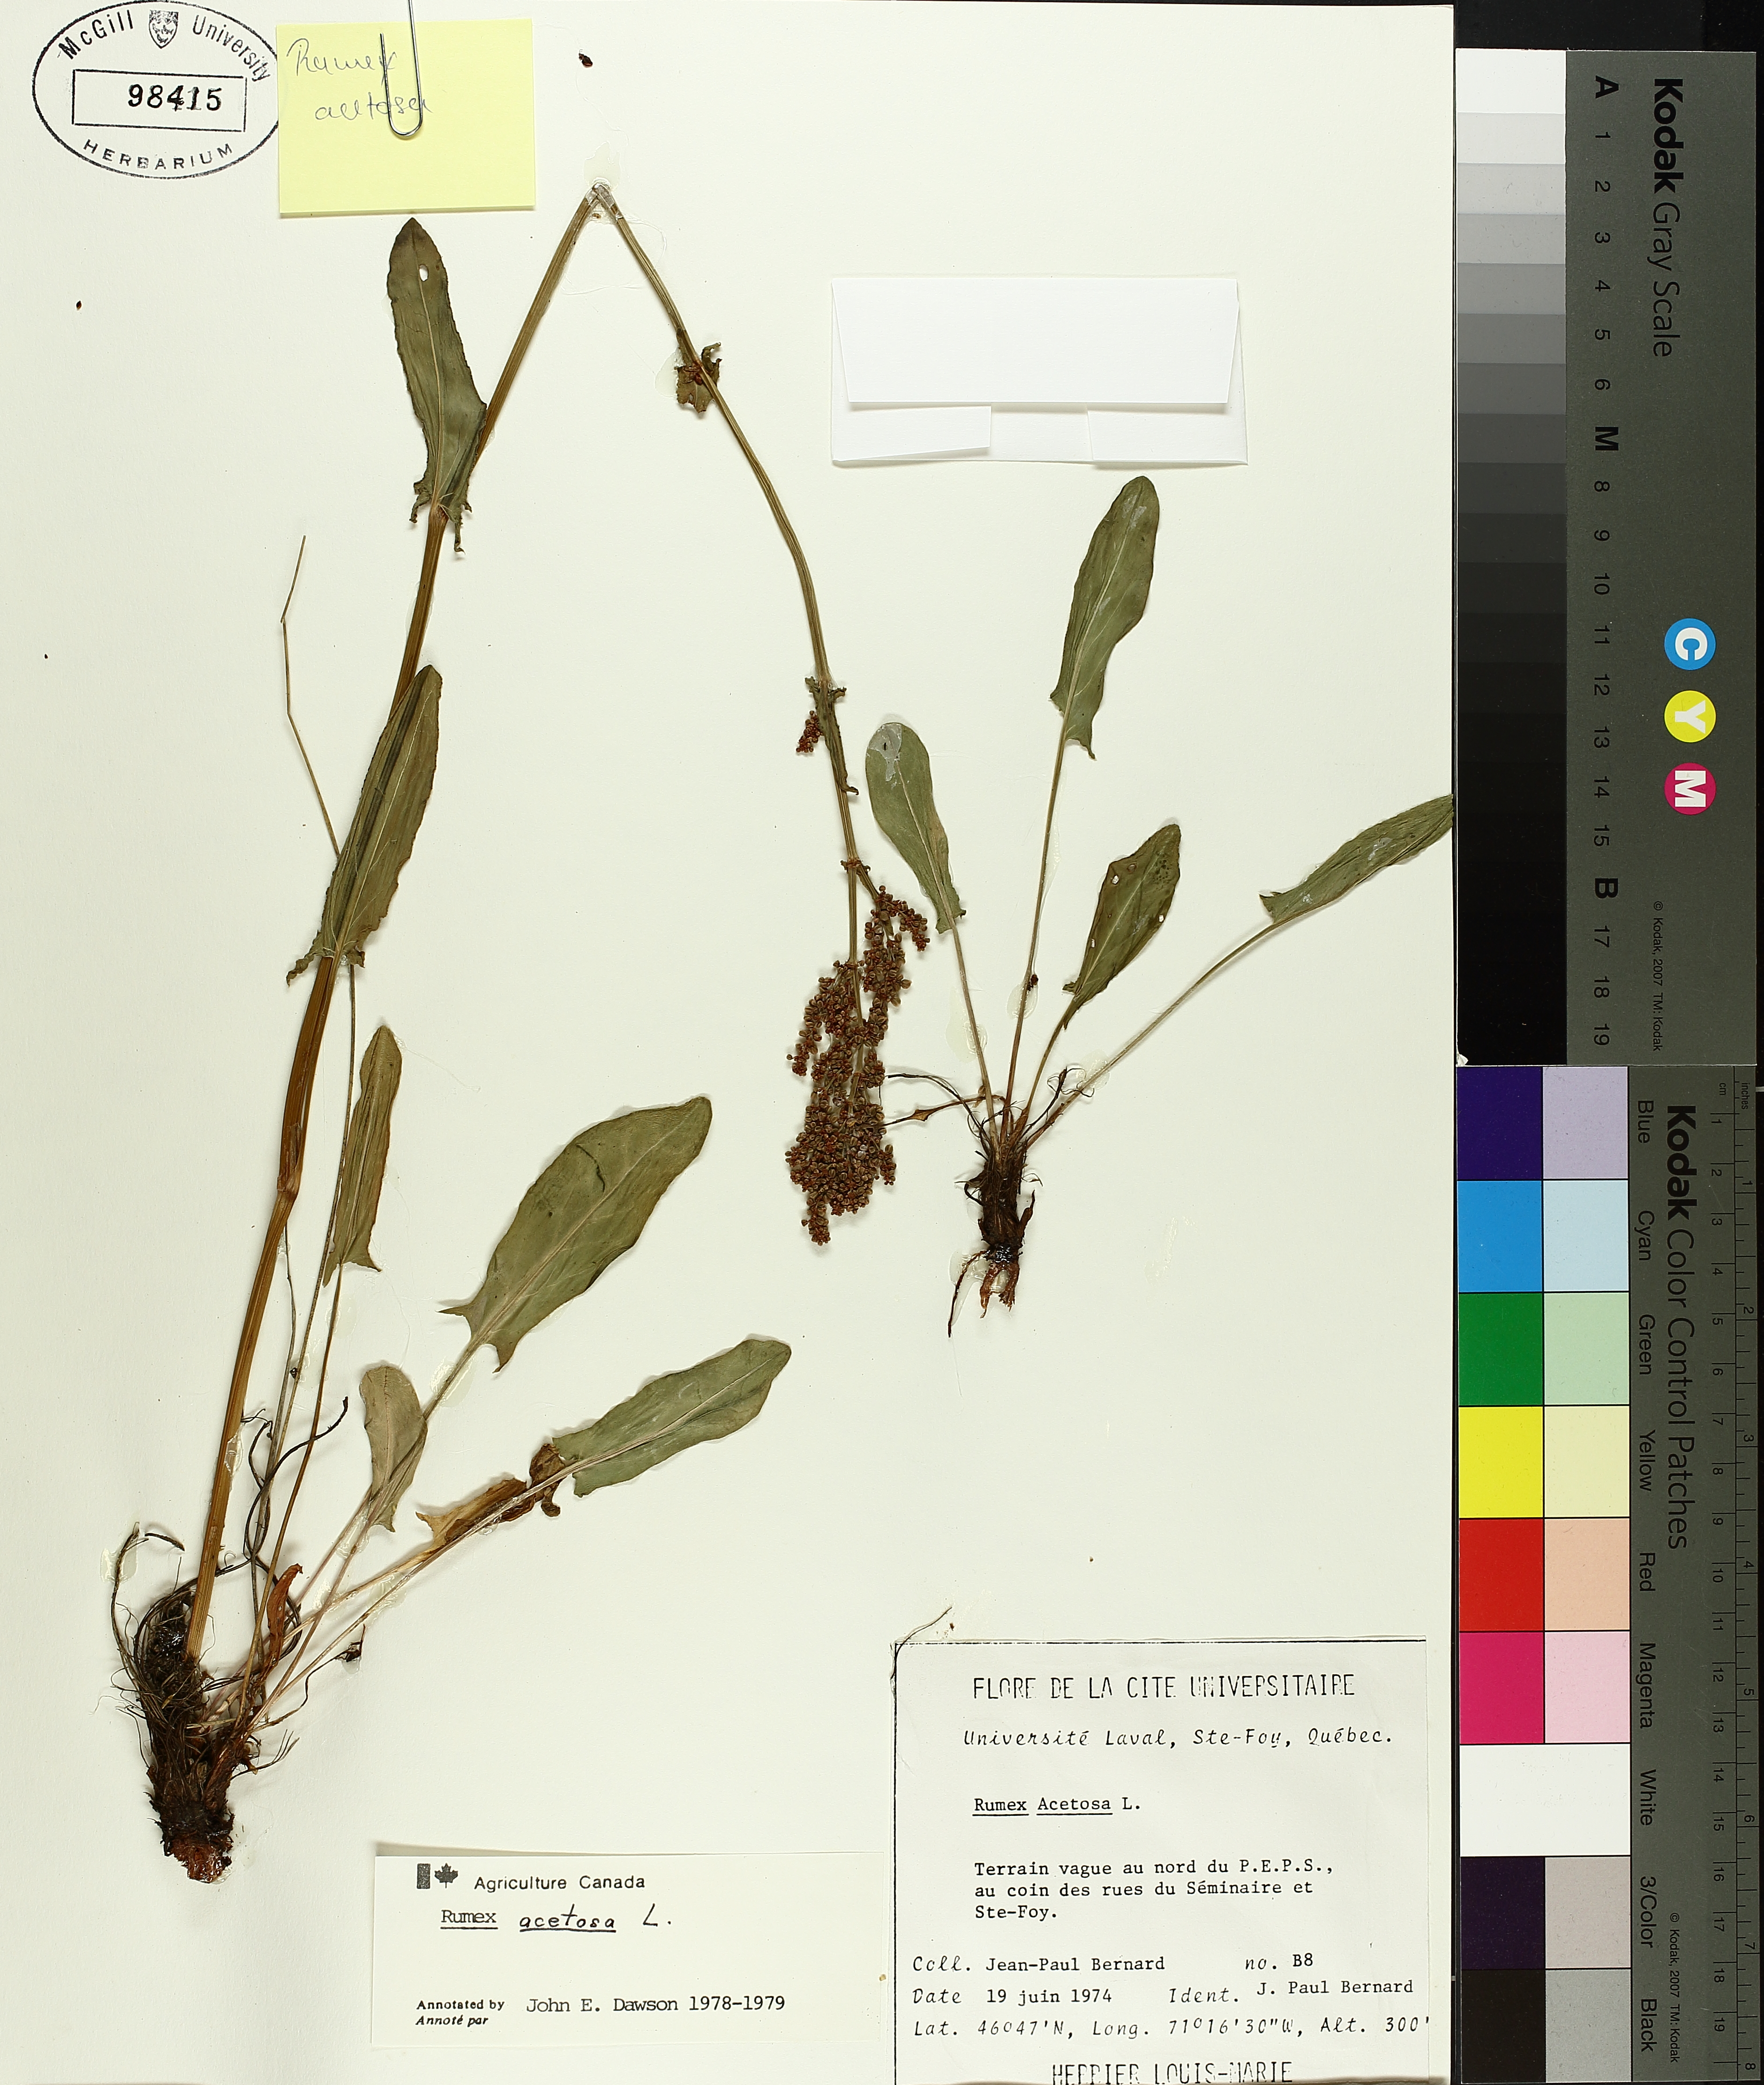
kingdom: Plantae
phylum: Tracheophyta
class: Magnoliopsida
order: Caryophyllales
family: Polygonaceae
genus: Rumex
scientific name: Rumex acetosa
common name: Garden sorrel
